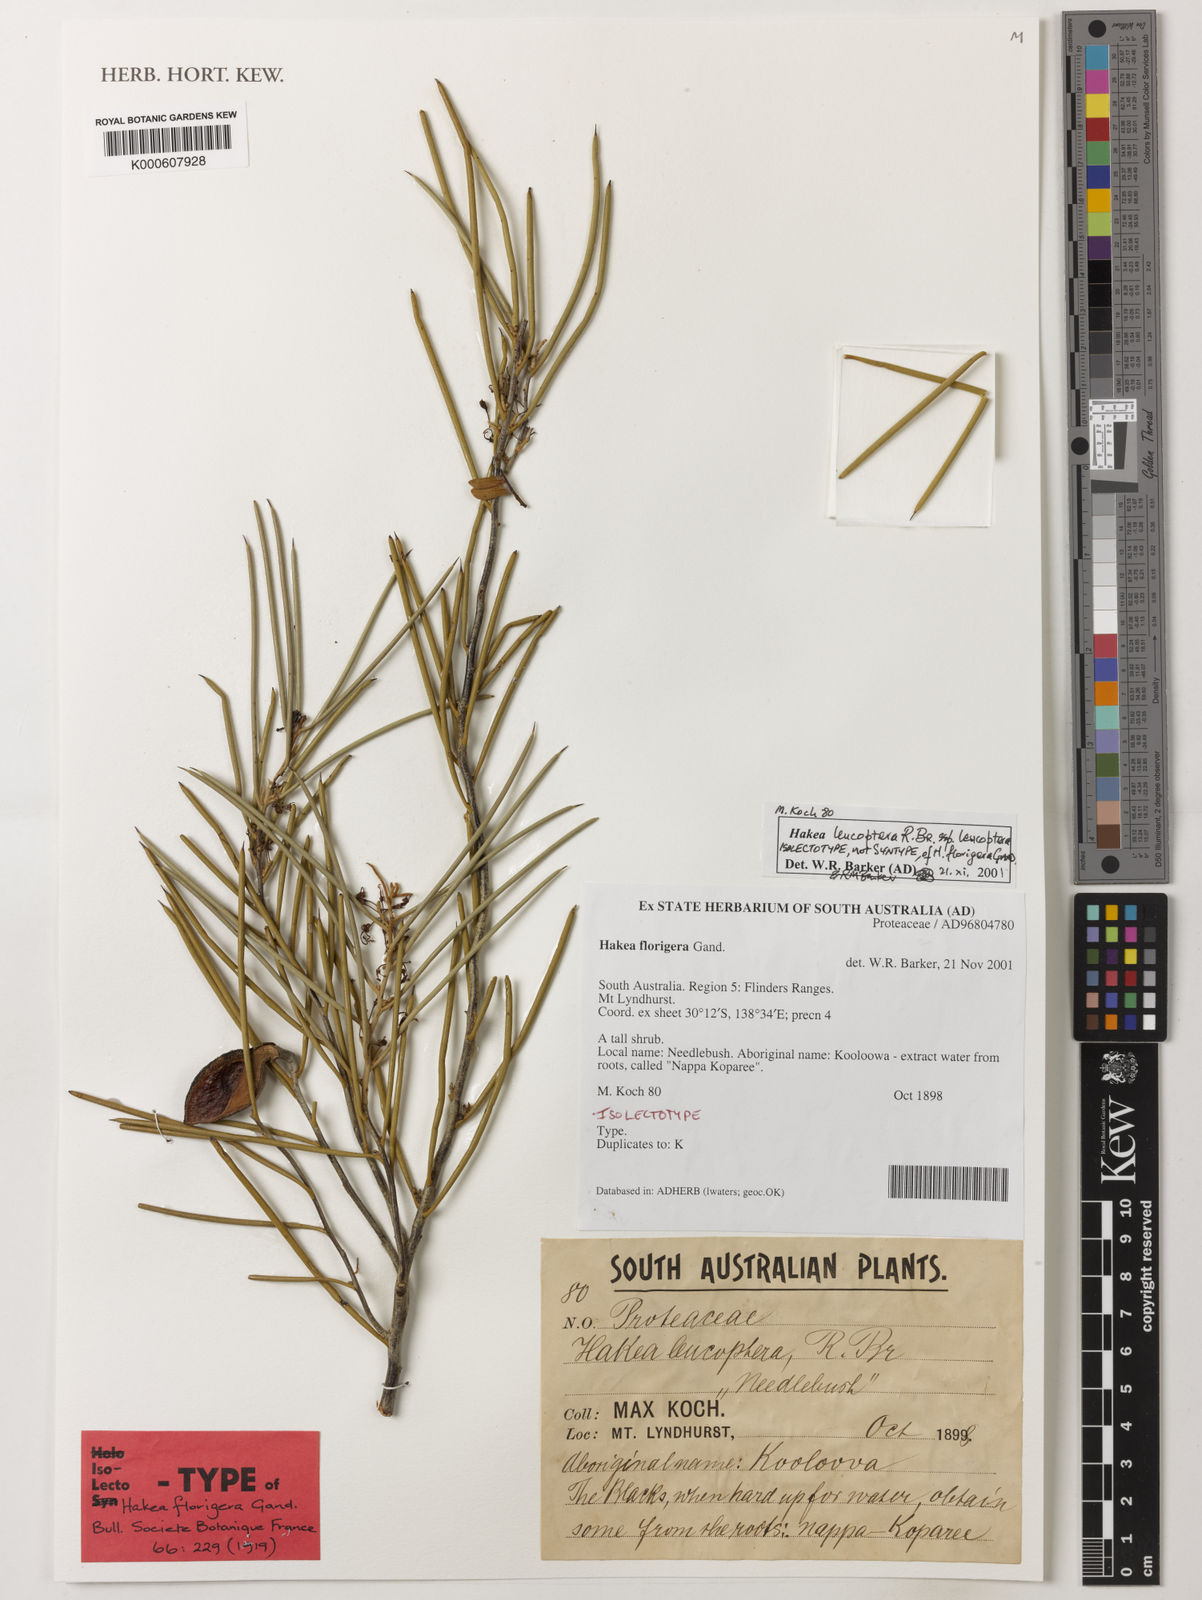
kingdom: Plantae
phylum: Tracheophyta
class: Magnoliopsida
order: Proteales
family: Proteaceae
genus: Hakea
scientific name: Hakea leucoptera
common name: Pinbush
